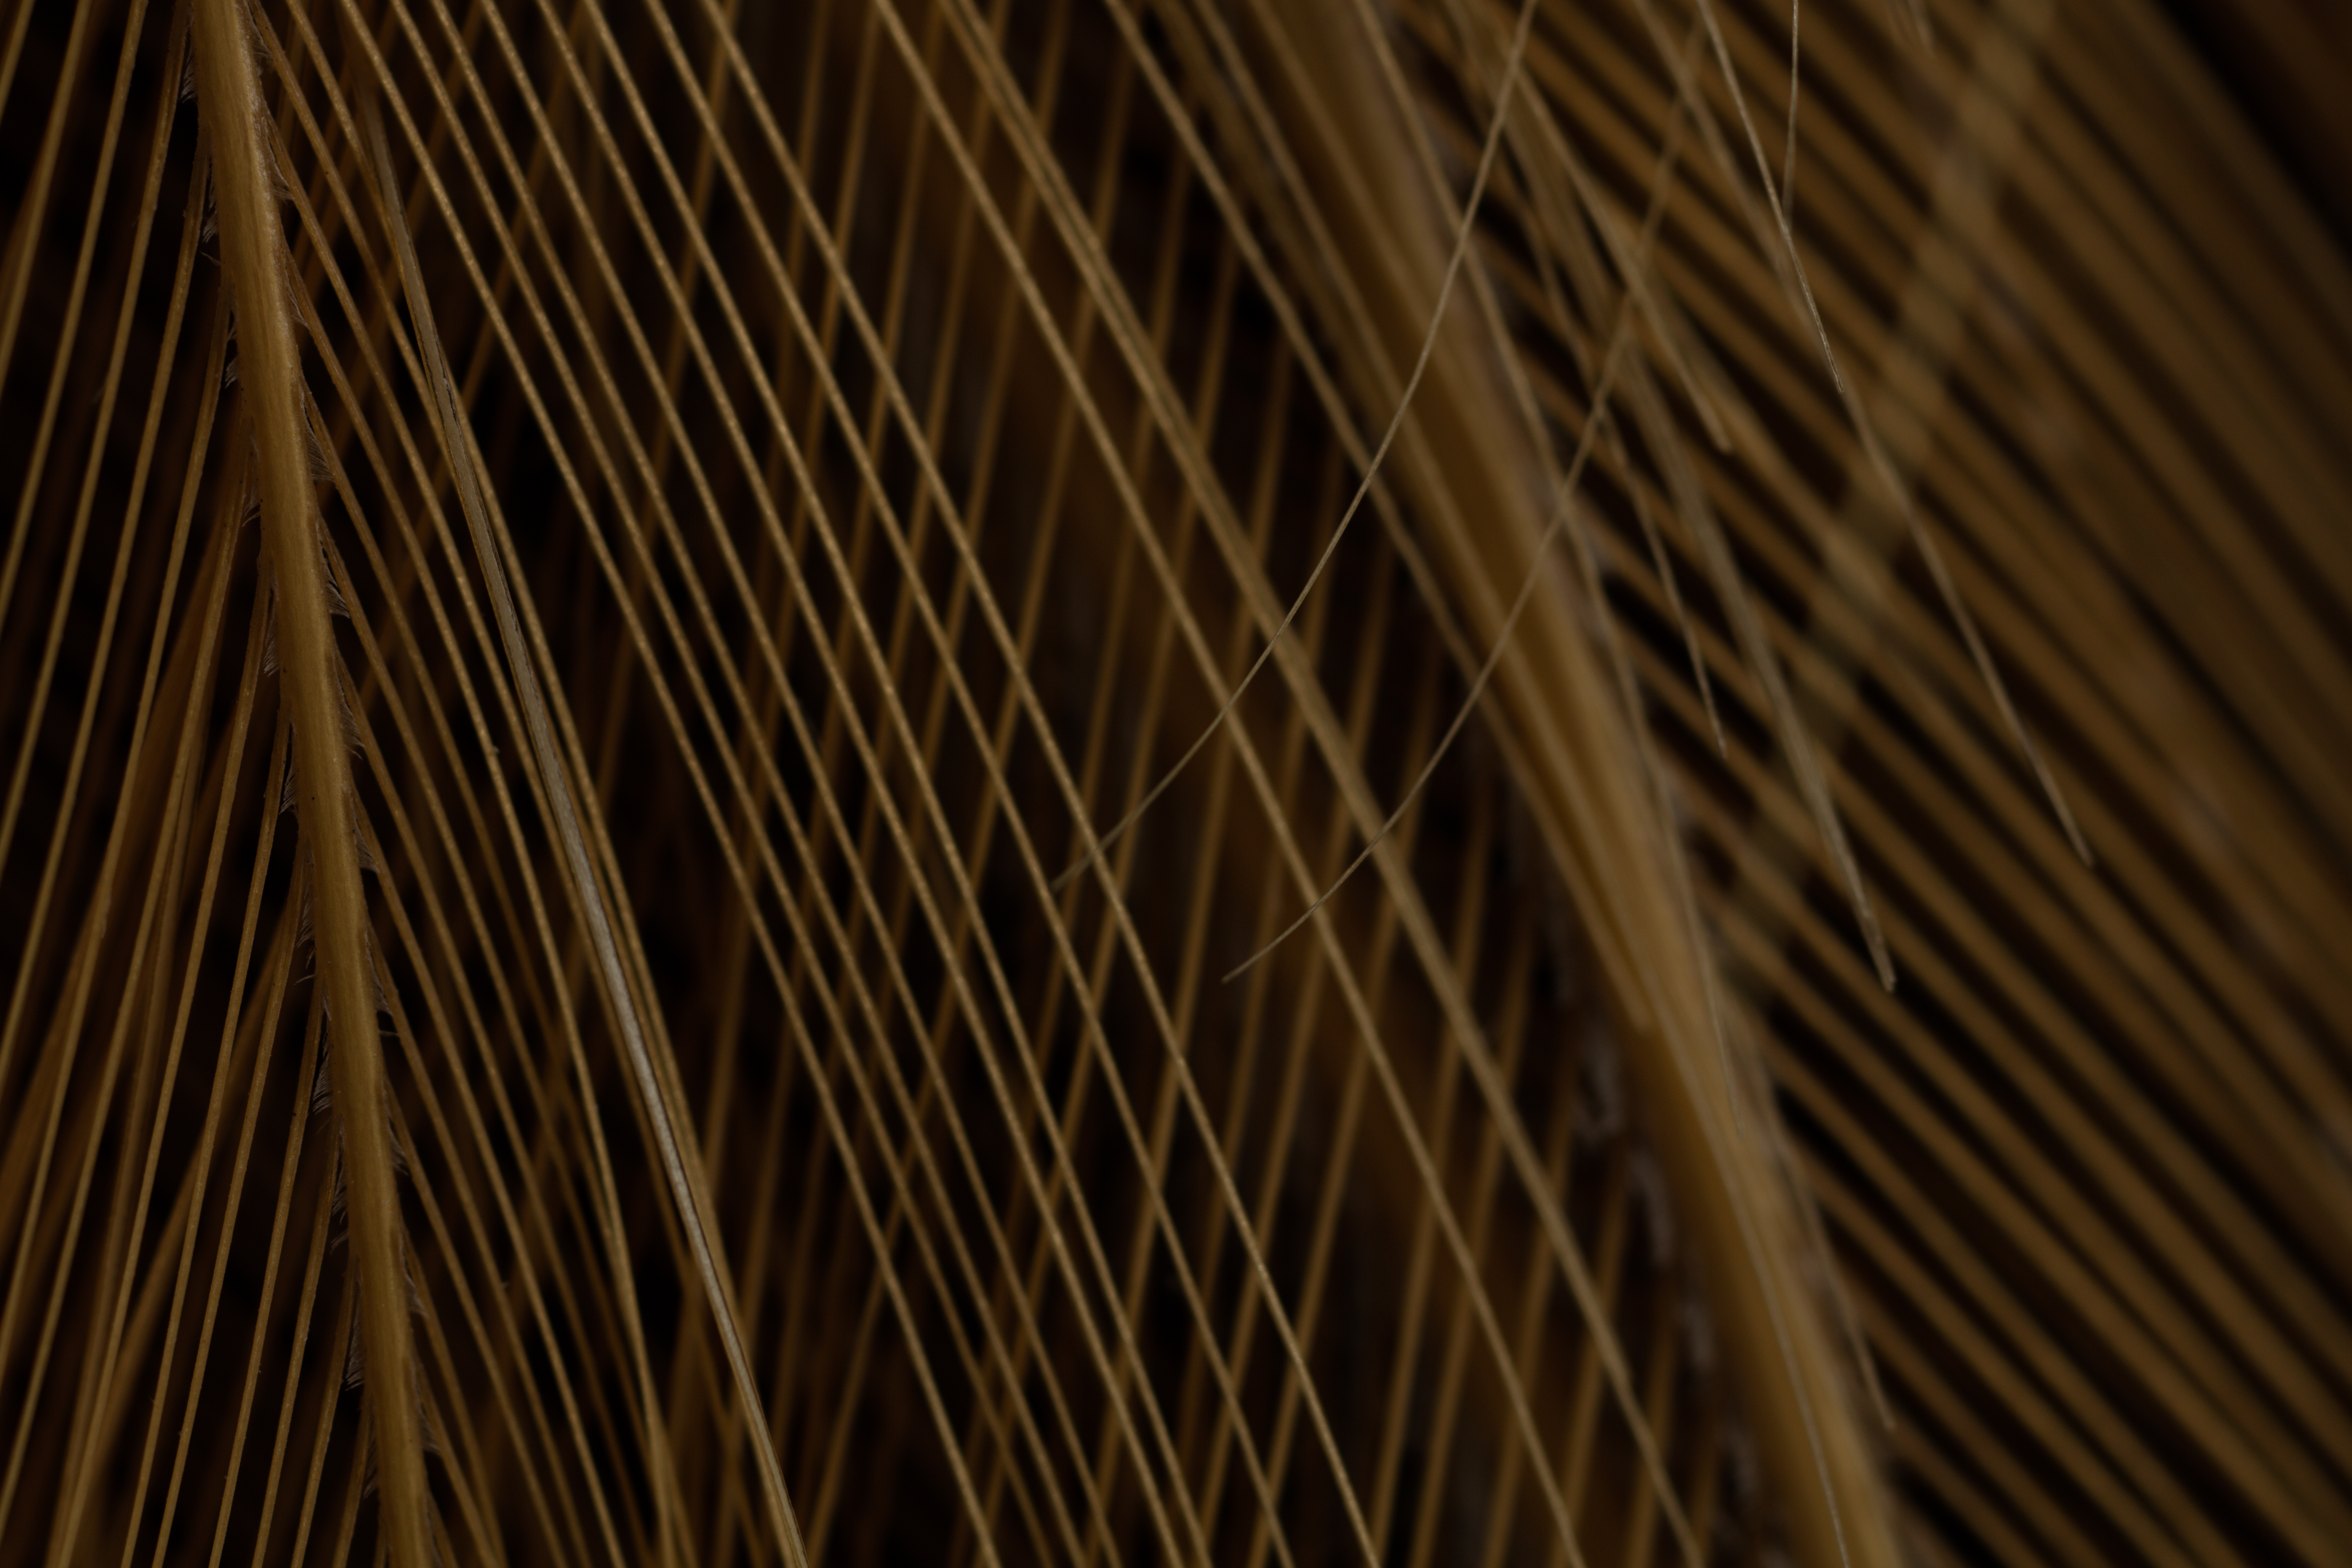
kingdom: Animalia
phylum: Chordata
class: Aves
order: Gruiformes
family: Gruidae
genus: Balearica
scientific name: Balearica regulorum
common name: Grey crowned crane
